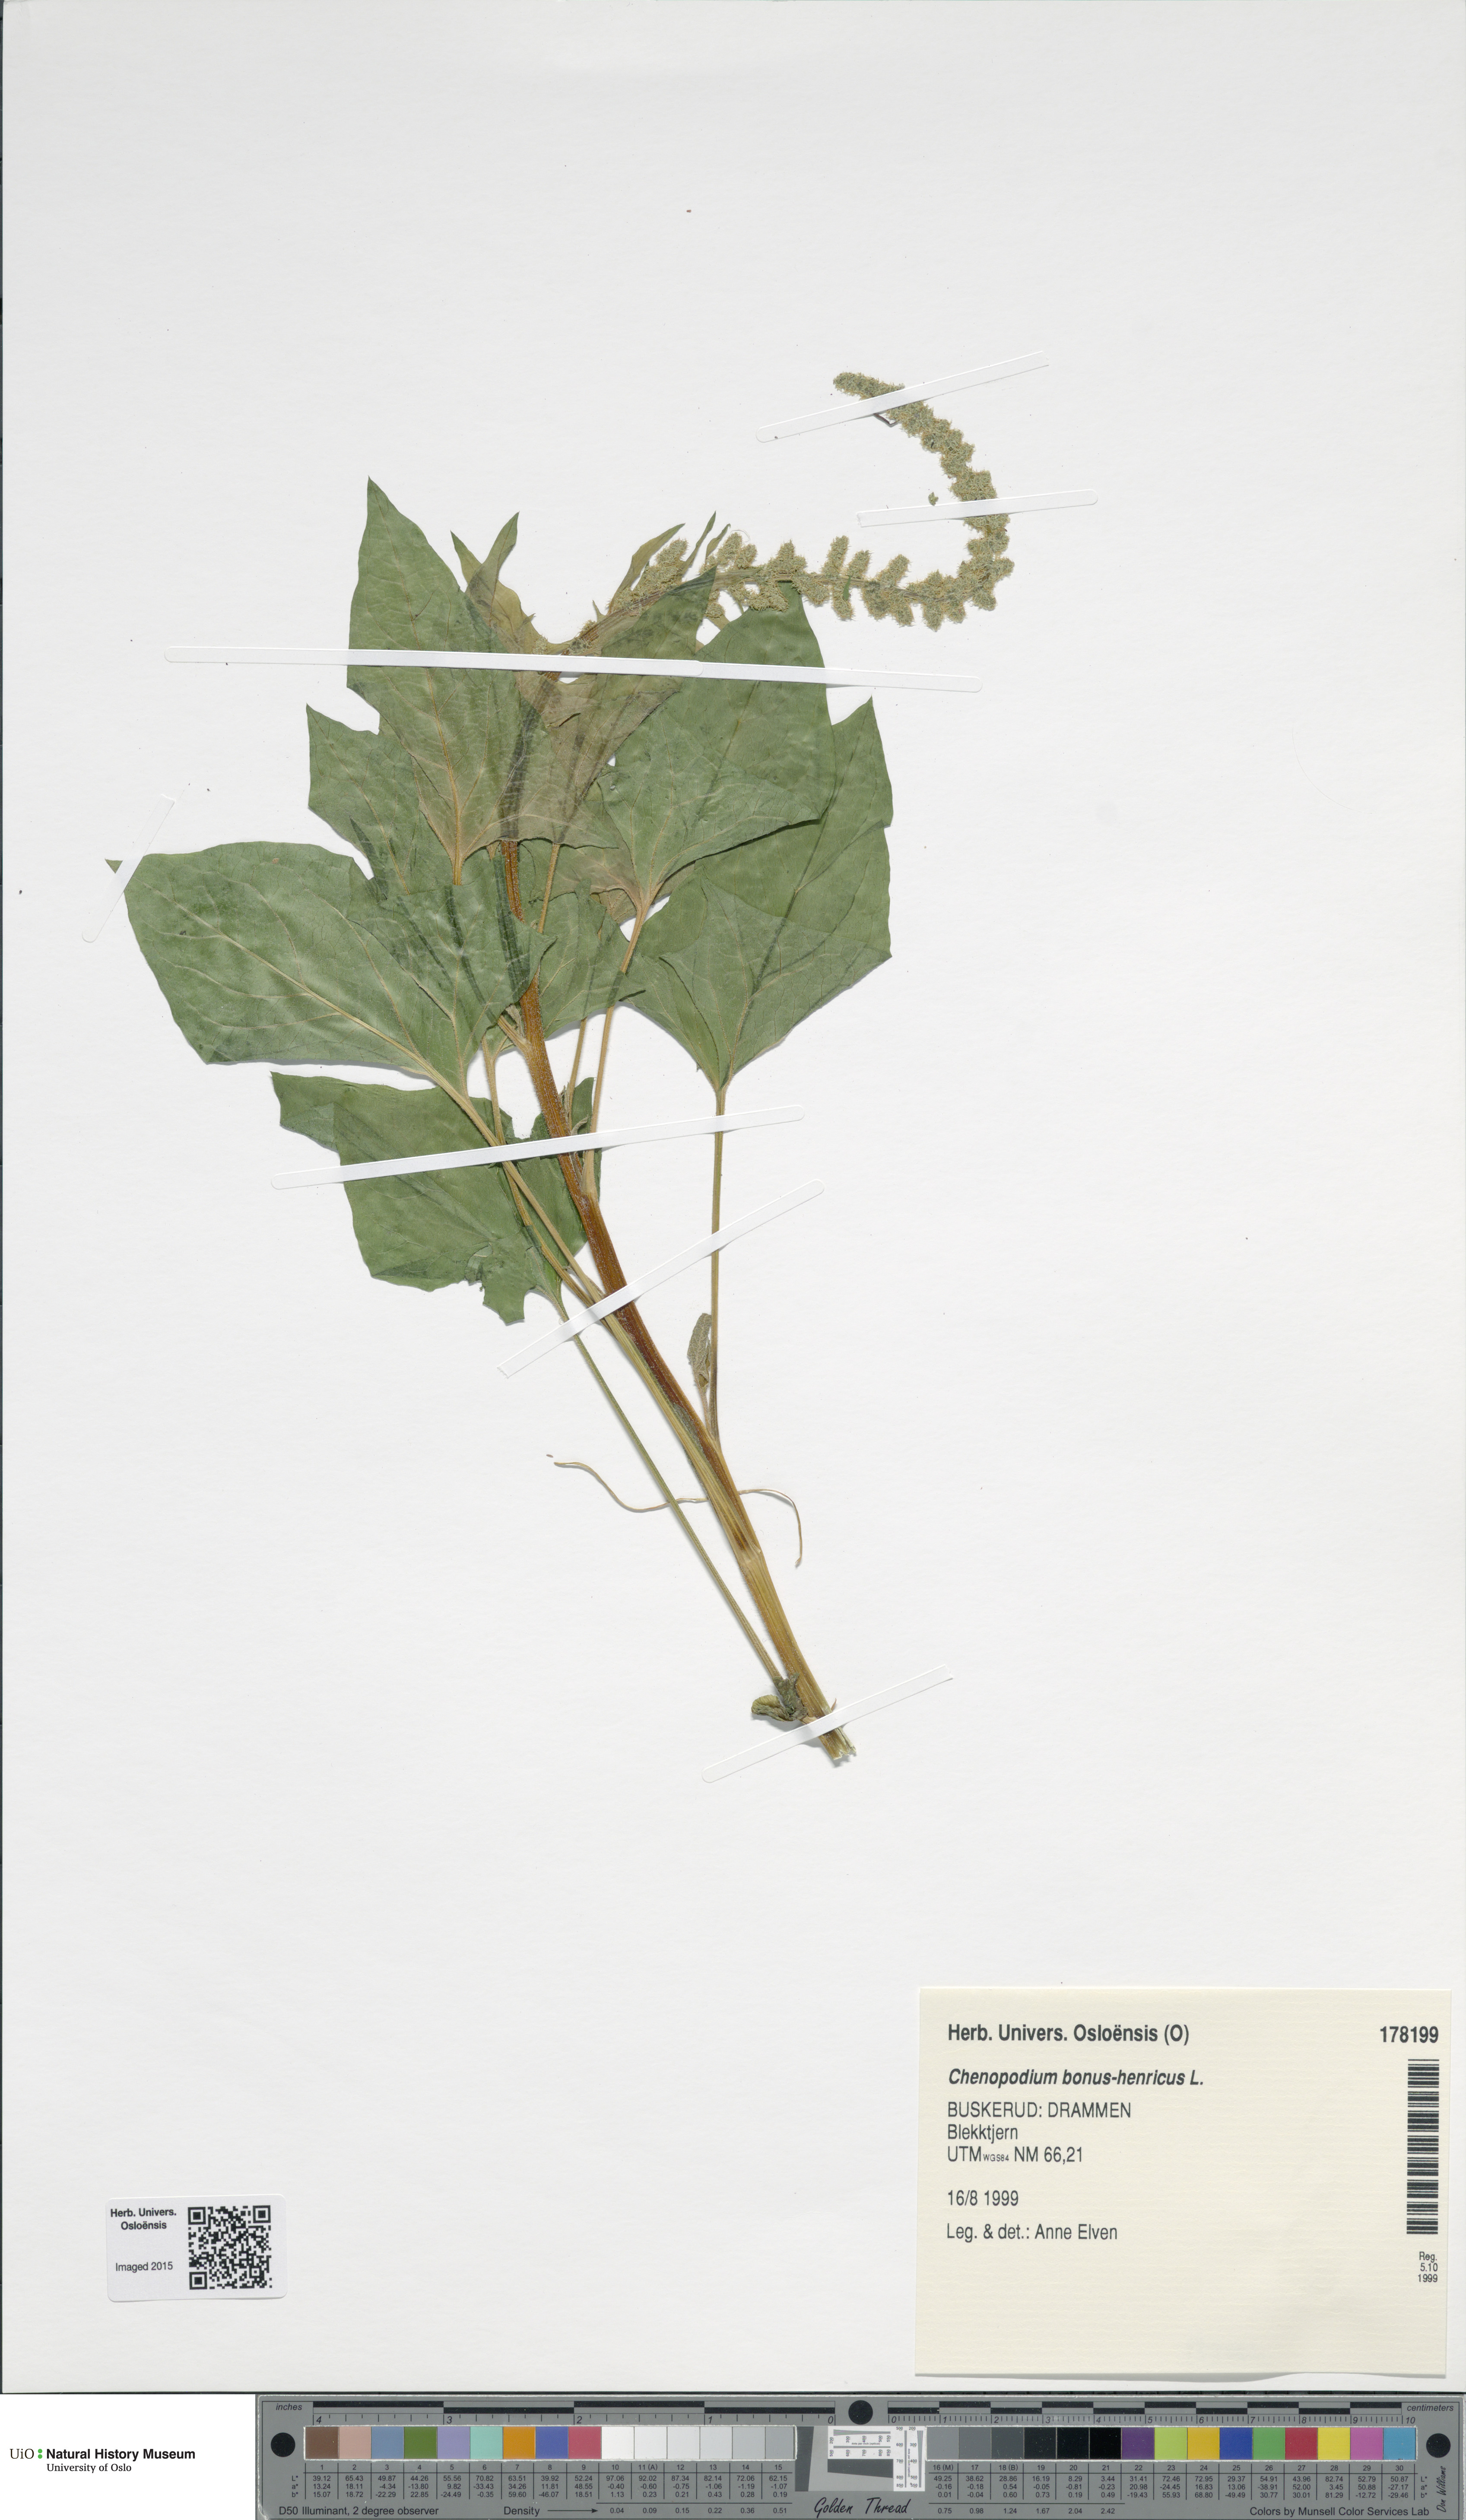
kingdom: Plantae
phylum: Tracheophyta
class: Magnoliopsida
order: Caryophyllales
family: Amaranthaceae
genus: Blitum
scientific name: Blitum bonus-henricus
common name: Good king henry
